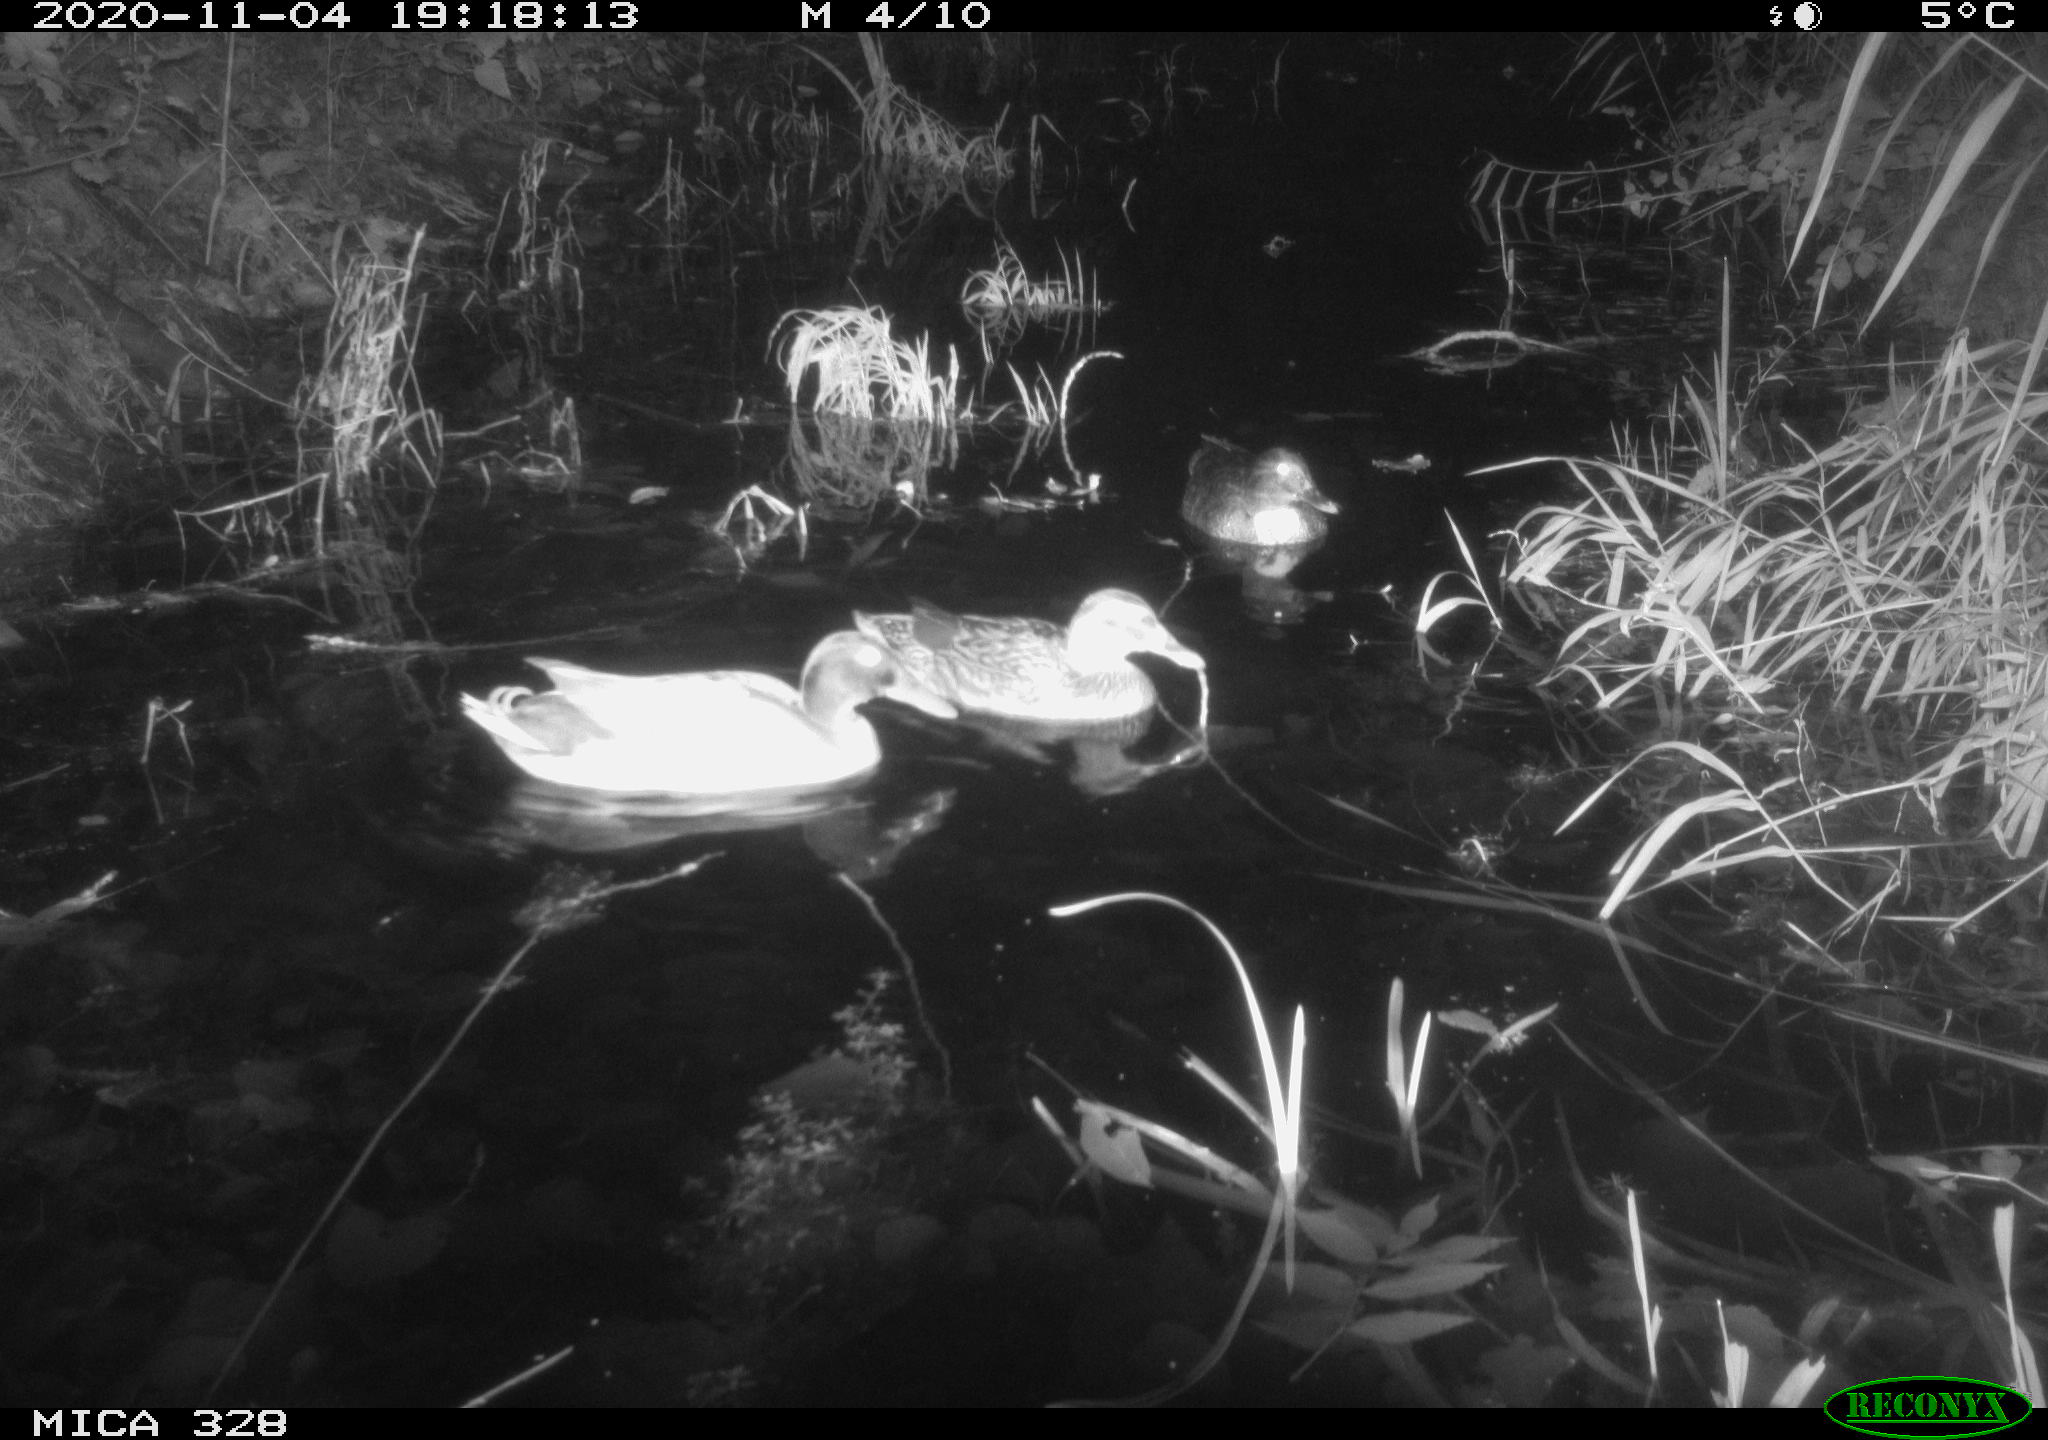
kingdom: Animalia
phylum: Chordata
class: Aves
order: Anseriformes
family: Anatidae
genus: Anas
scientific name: Anas platyrhynchos
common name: Mallard
